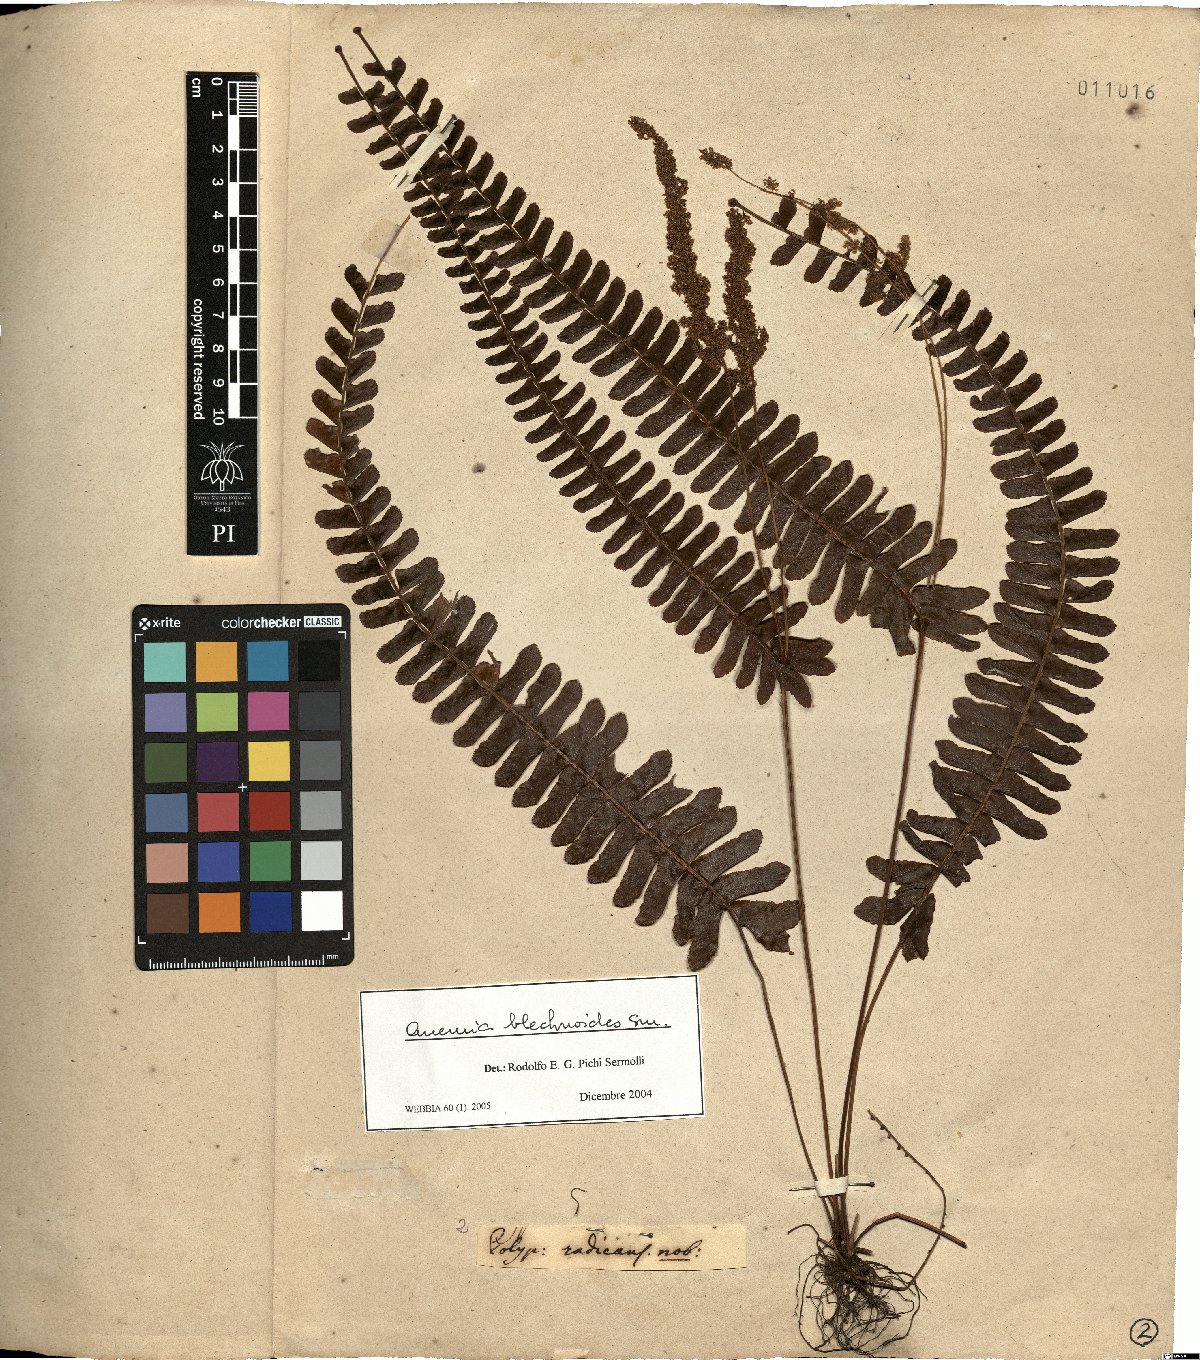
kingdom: Plantae
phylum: Tracheophyta
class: Polypodiopsida
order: Schizaeales
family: Anemiaceae
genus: Anemia
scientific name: Anemia blechnoides
